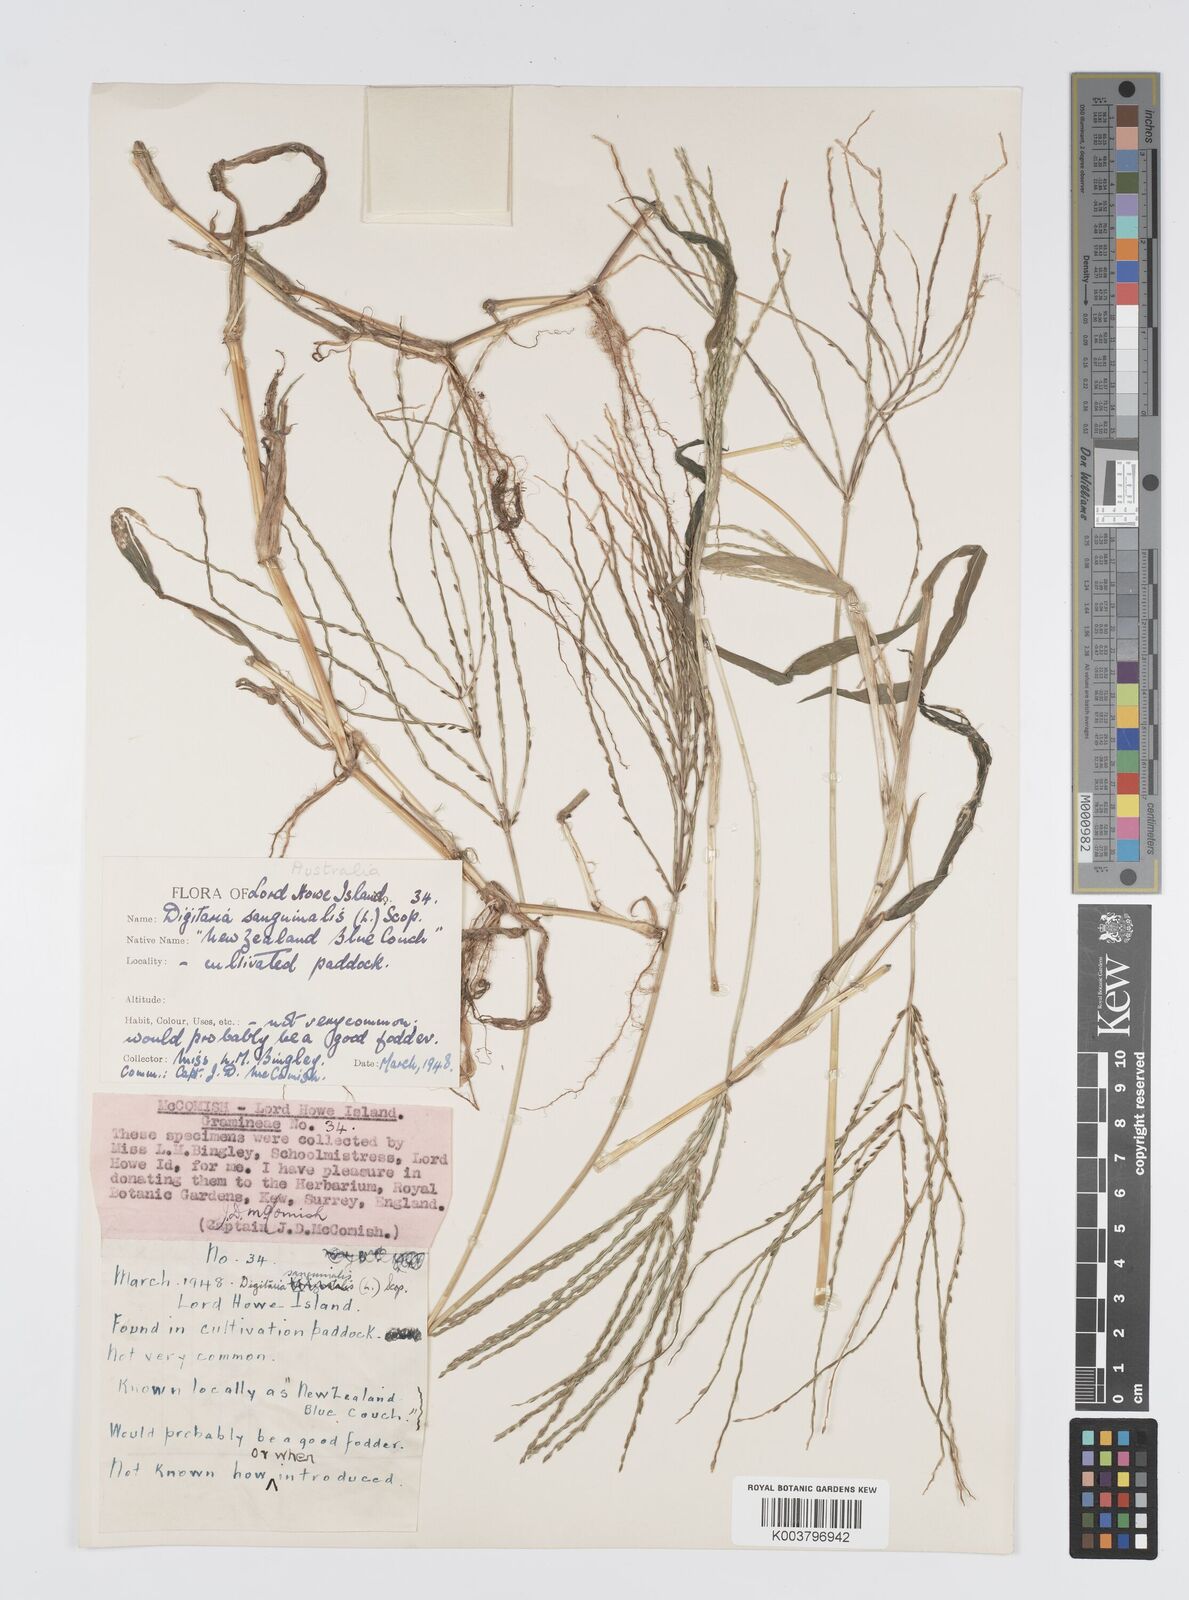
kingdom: Plantae
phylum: Tracheophyta
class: Liliopsida
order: Poales
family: Poaceae
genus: Digitaria
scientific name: Digitaria sanguinalis
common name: Hairy crabgrass
